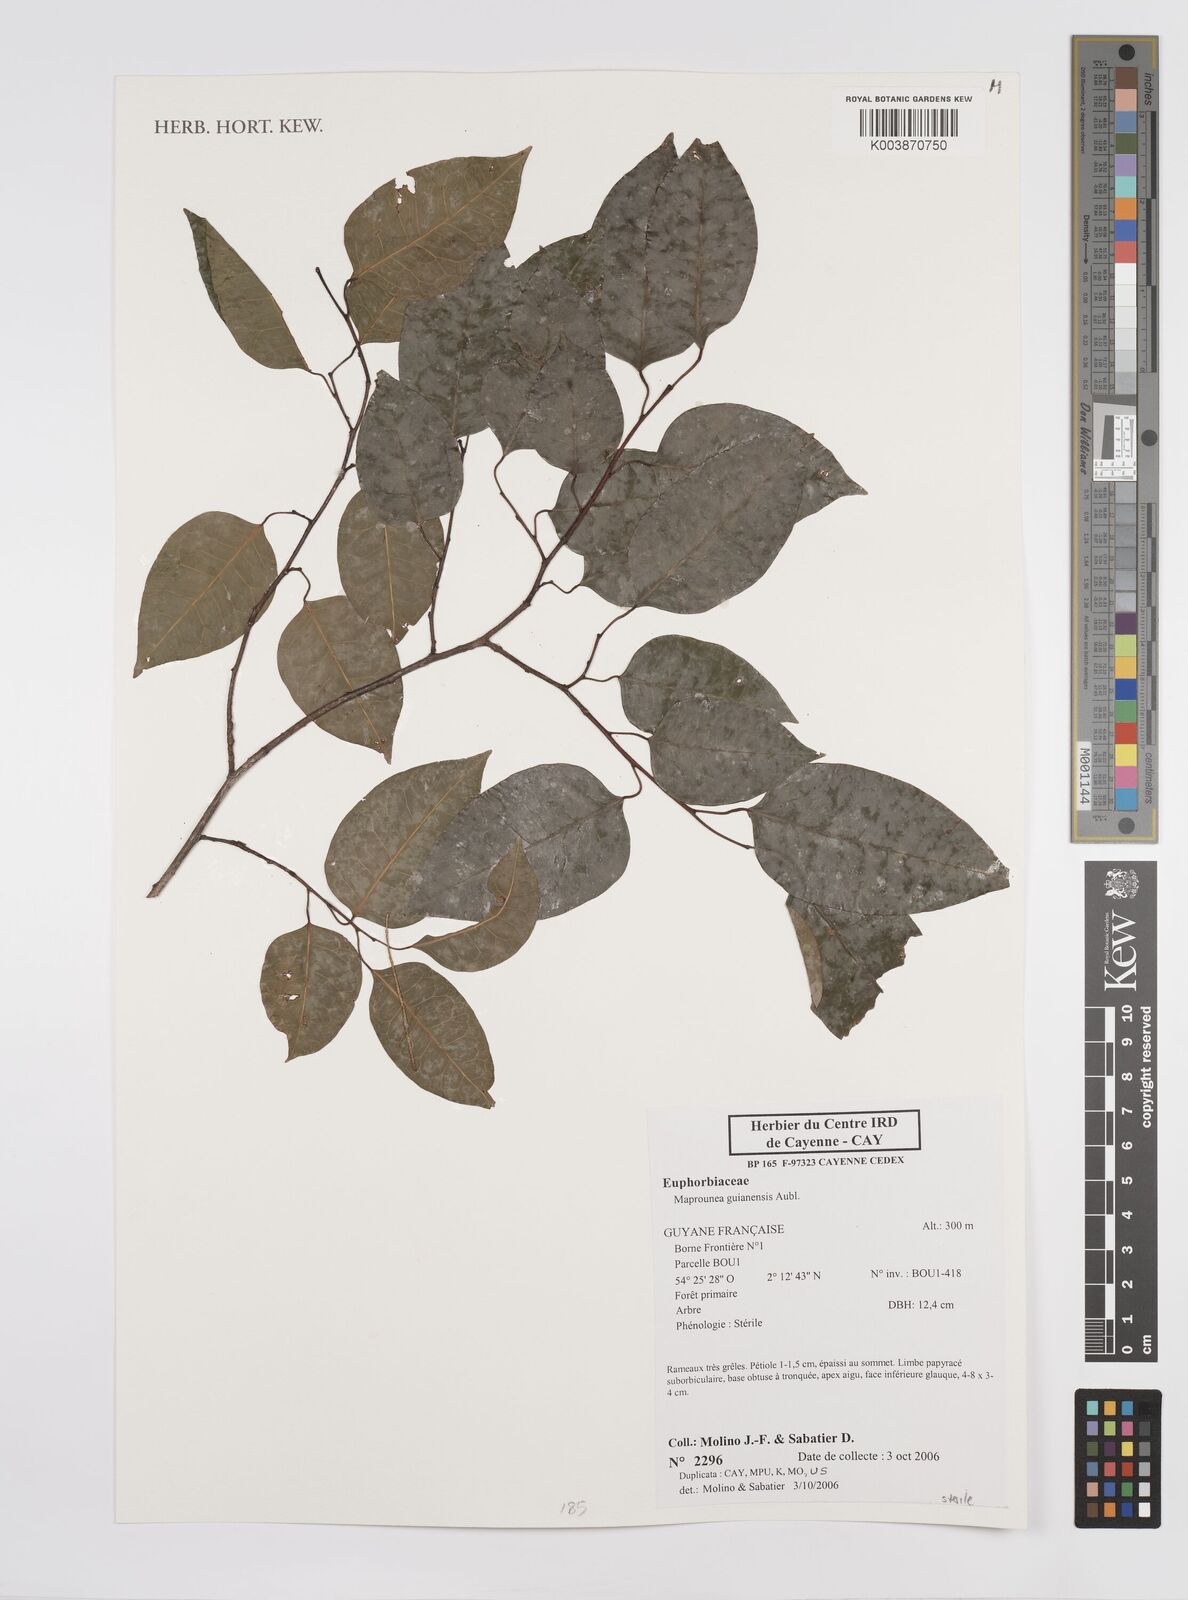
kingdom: Plantae
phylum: Tracheophyta
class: Magnoliopsida
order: Malpighiales
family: Euphorbiaceae
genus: Maprounea
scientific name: Maprounea guianensis
